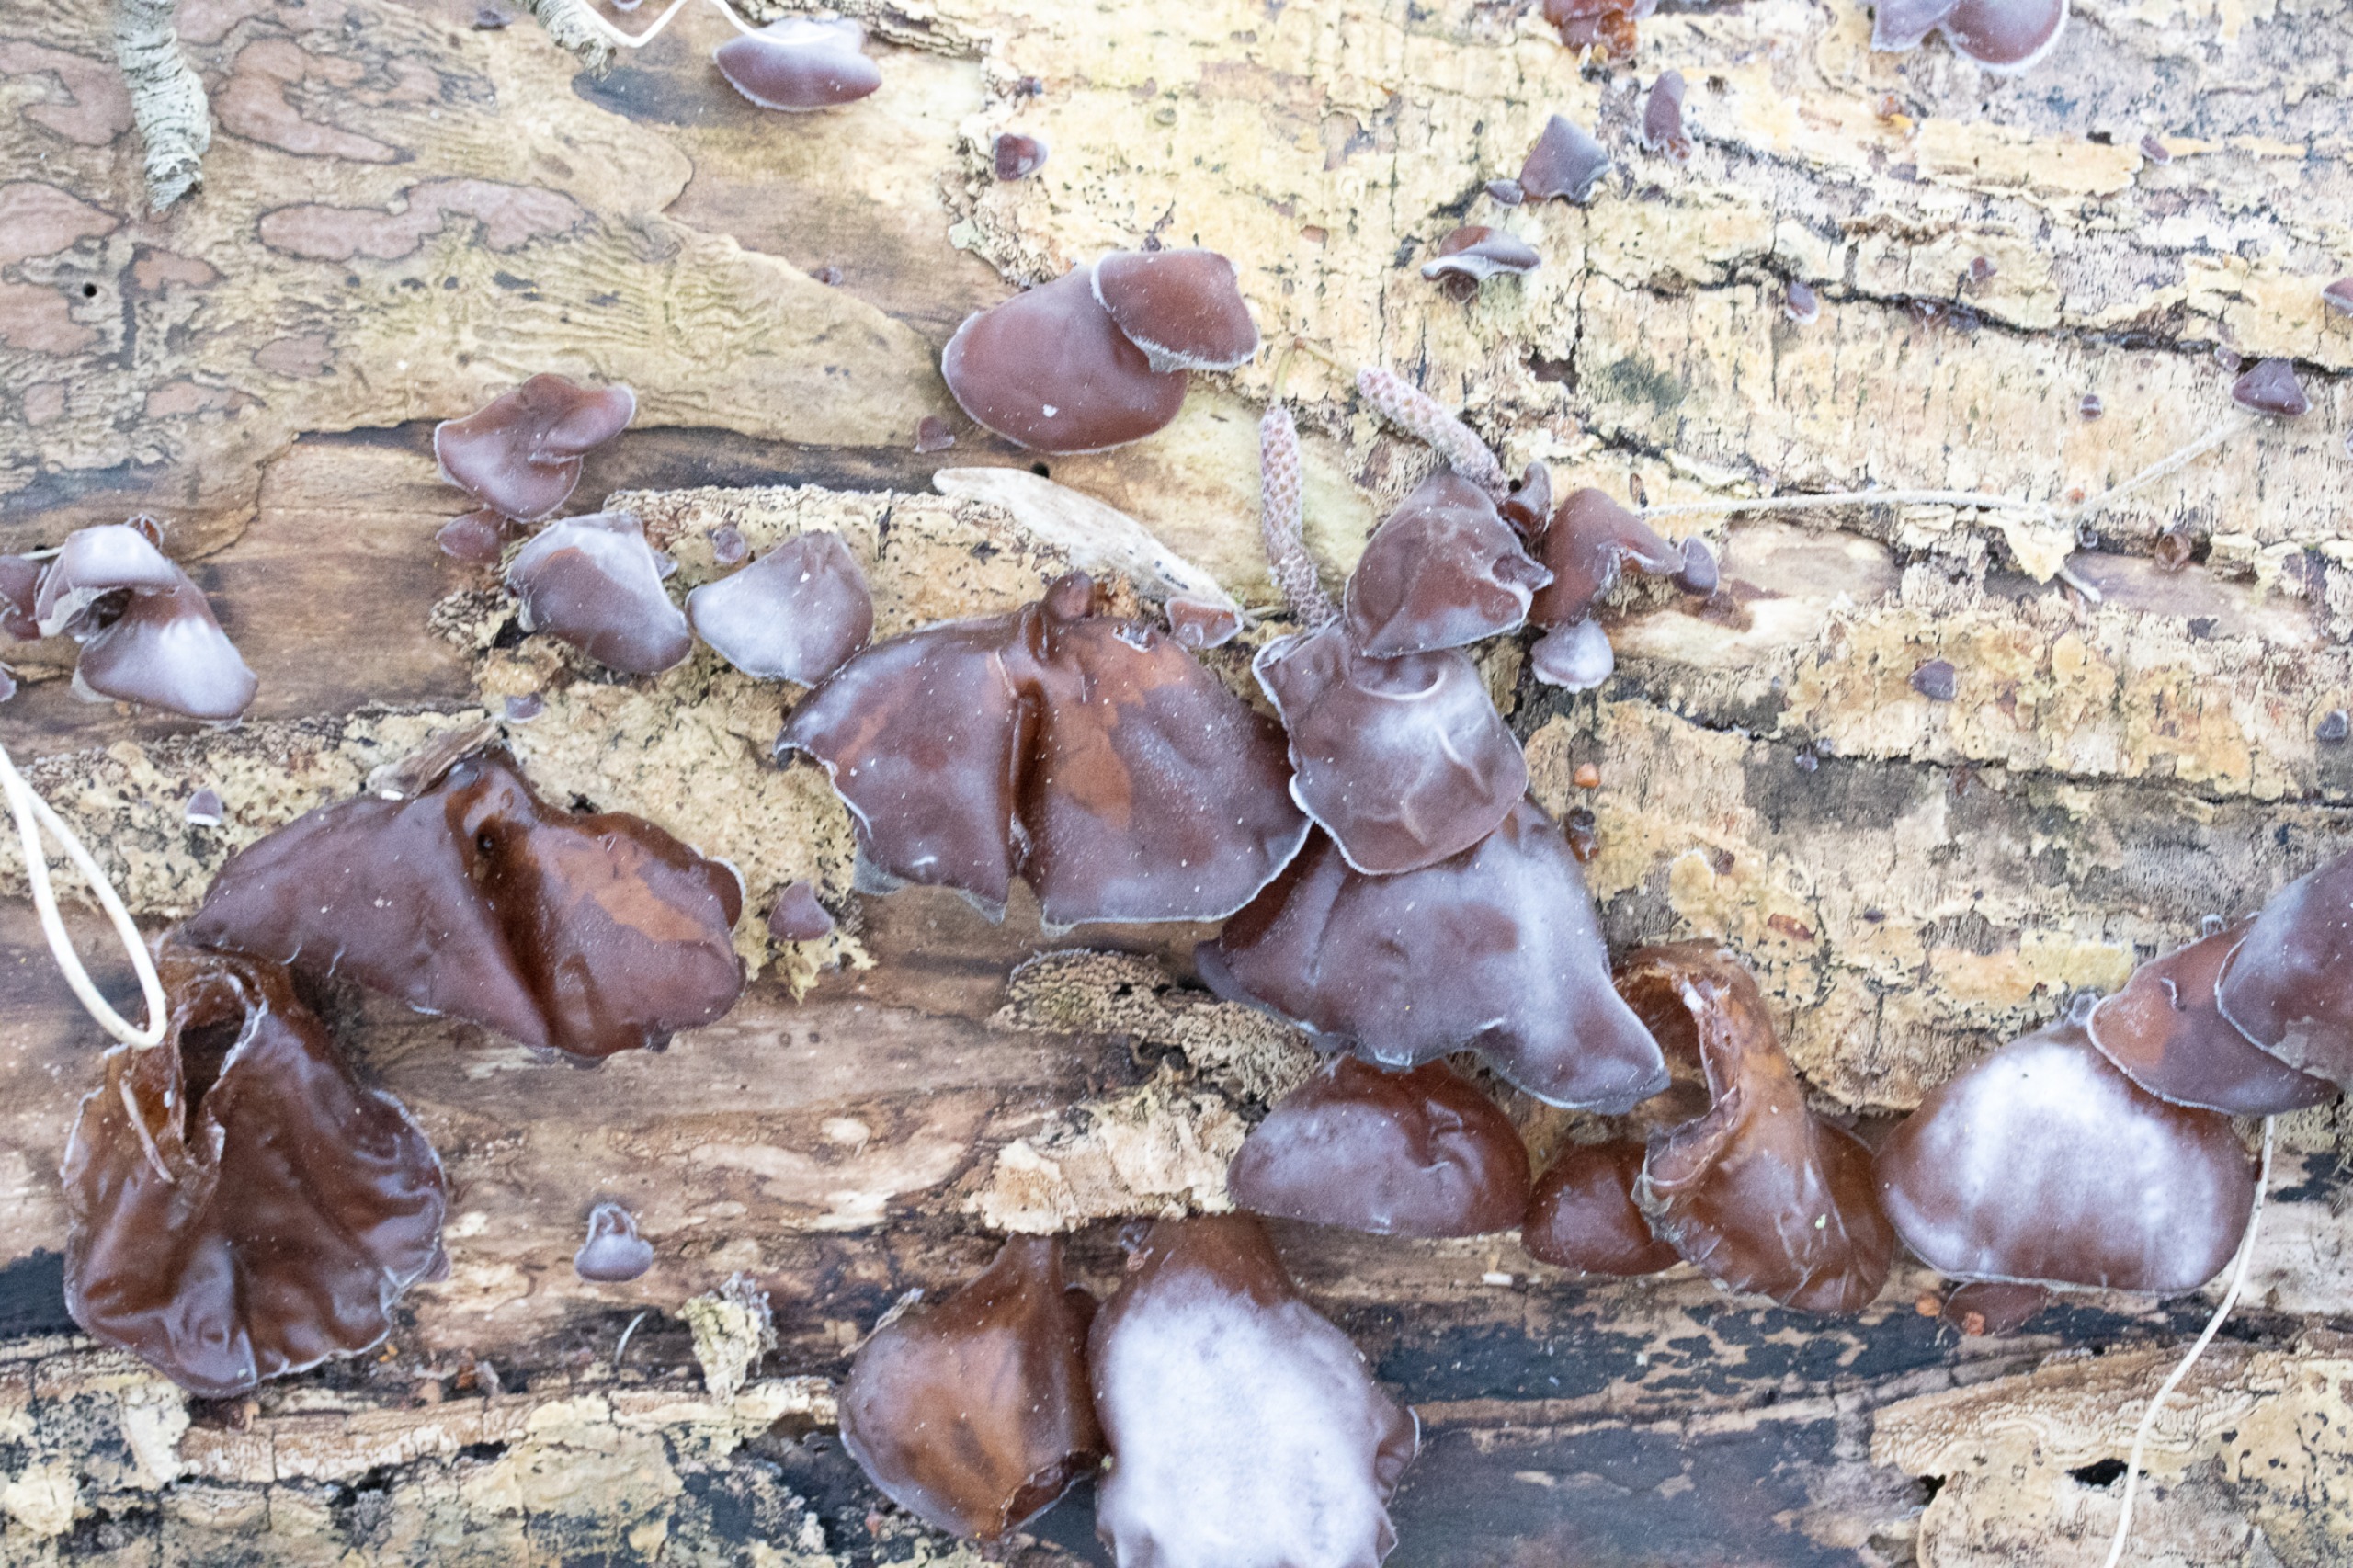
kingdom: Fungi
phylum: Basidiomycota
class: Agaricomycetes
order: Auriculariales
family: Auriculariaceae
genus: Auricularia
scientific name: Auricularia auricula-judae
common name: Almindelig judasøre
